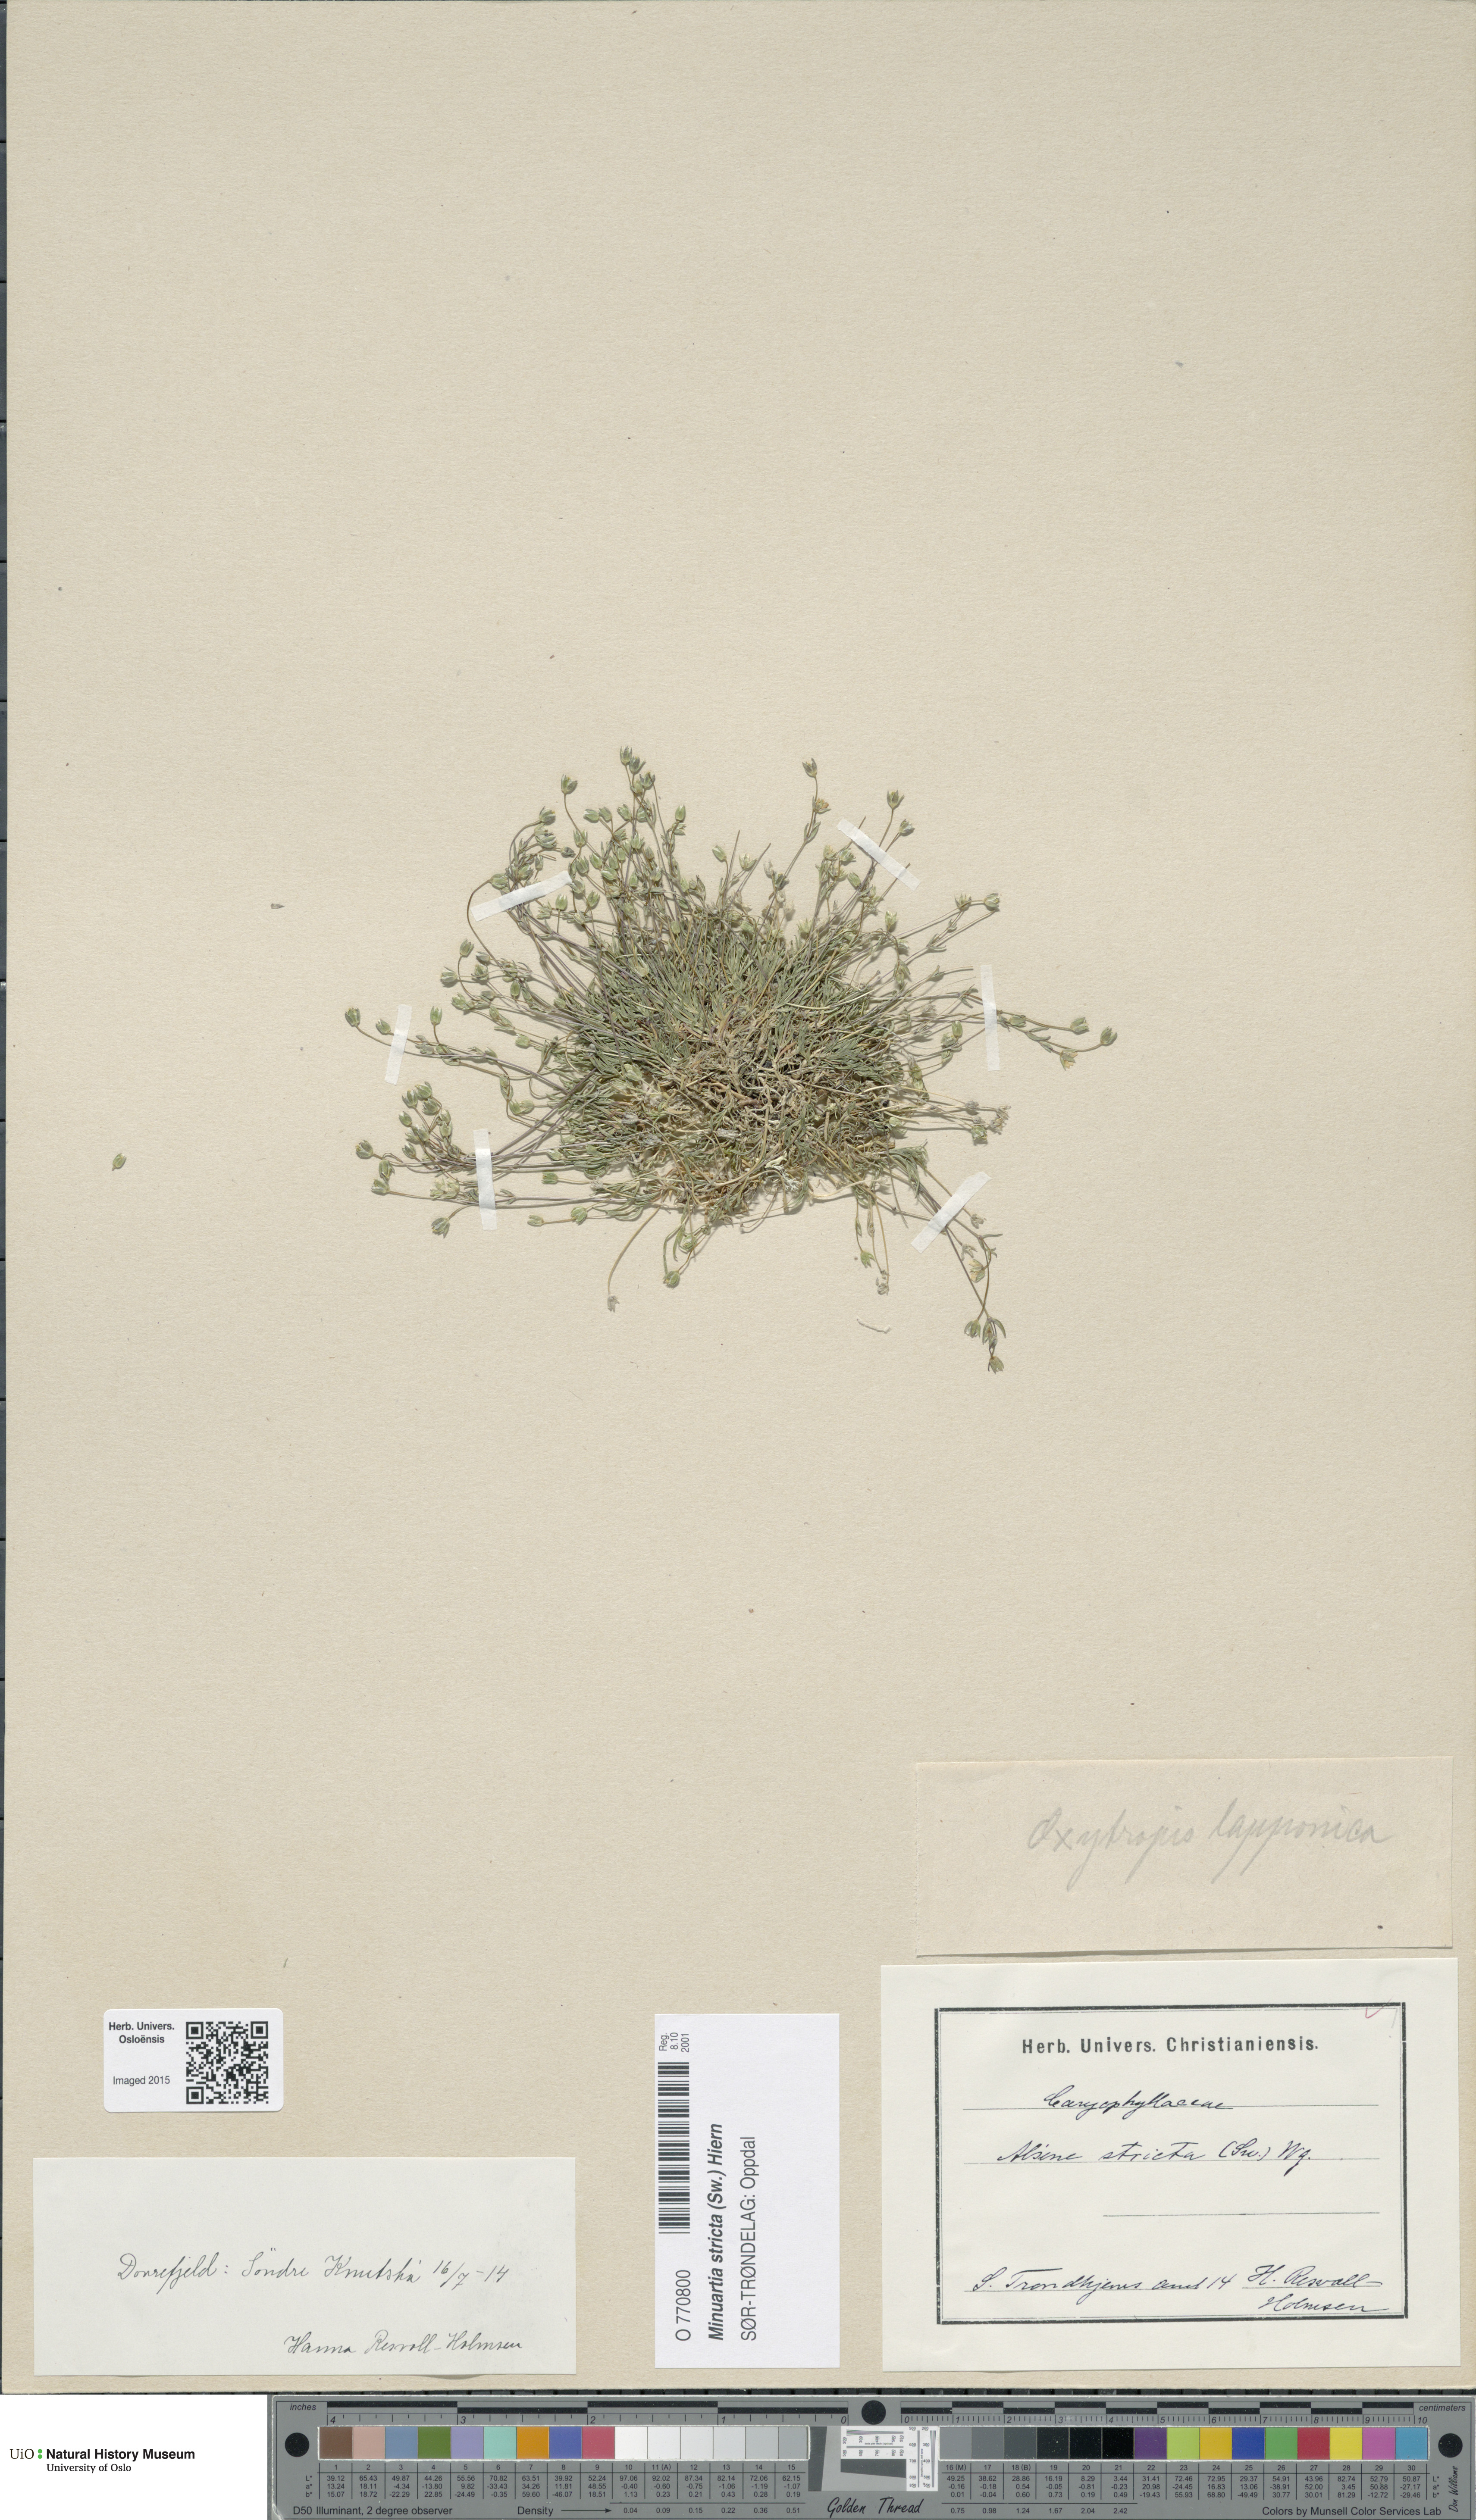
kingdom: Plantae
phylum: Tracheophyta
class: Magnoliopsida
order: Caryophyllales
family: Caryophyllaceae
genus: Sabulina
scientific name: Sabulina stricta
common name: Bog sandwort
